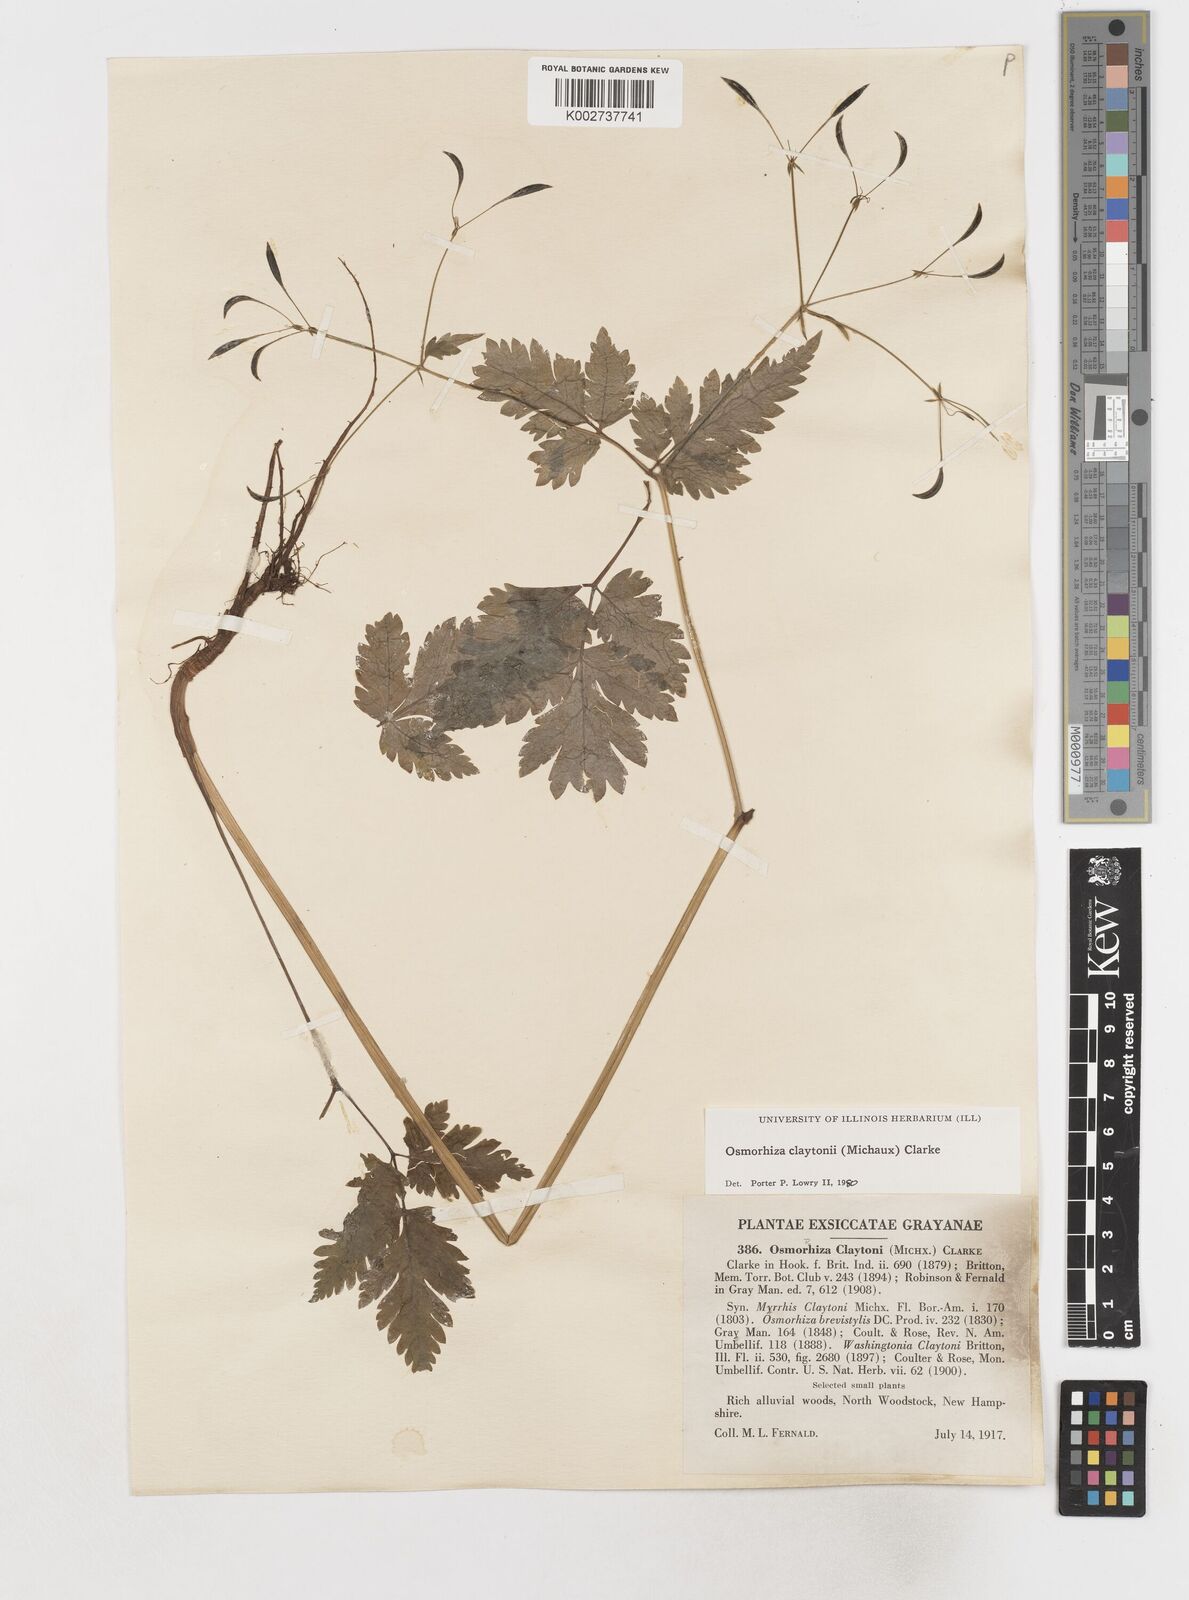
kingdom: Plantae
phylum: Tracheophyta
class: Magnoliopsida
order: Apiales
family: Apiaceae
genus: Osmorhiza
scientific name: Osmorhiza claytonii
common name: Hairy sweet cicely
